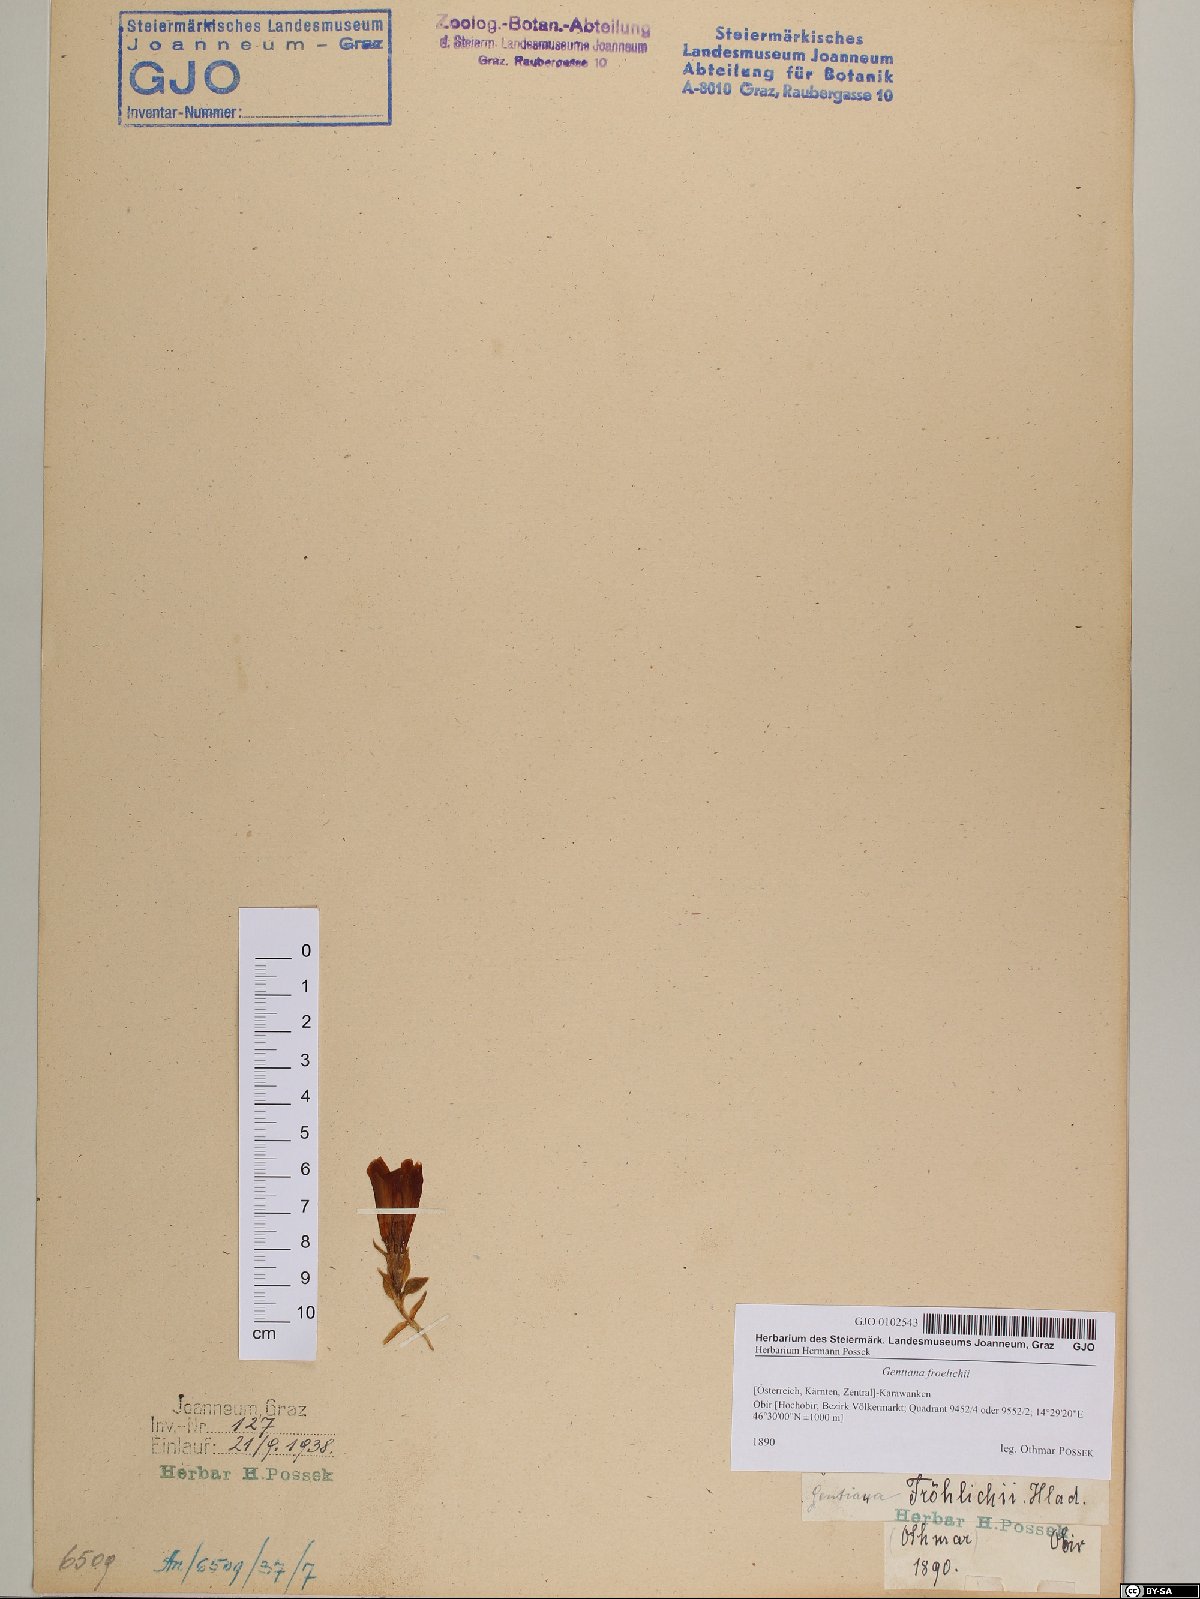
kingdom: Plantae
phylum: Tracheophyta
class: Magnoliopsida
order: Gentianales
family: Gentianaceae
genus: Gentiana
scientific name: Gentiana froelichii
